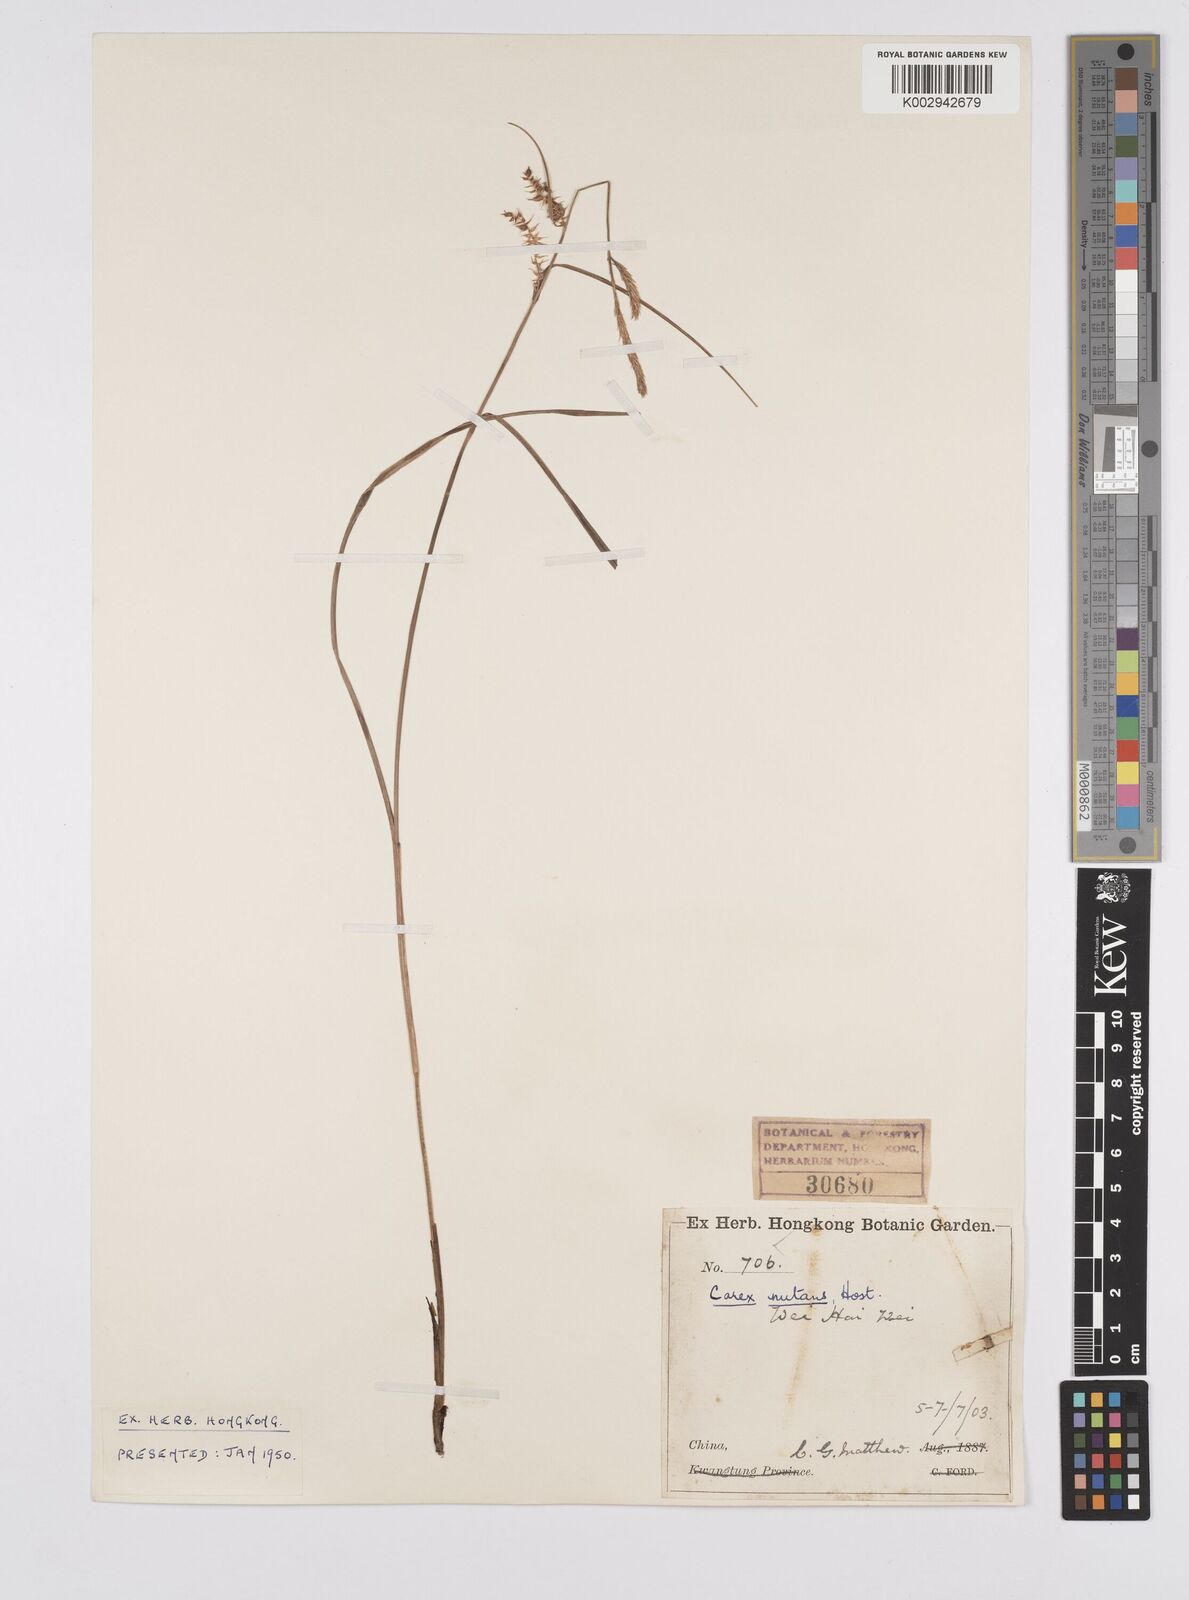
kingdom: Plantae
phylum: Tracheophyta
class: Liliopsida
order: Poales
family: Cyperaceae
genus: Carex
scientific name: Carex melanostachya
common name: Black-spiked sedge
